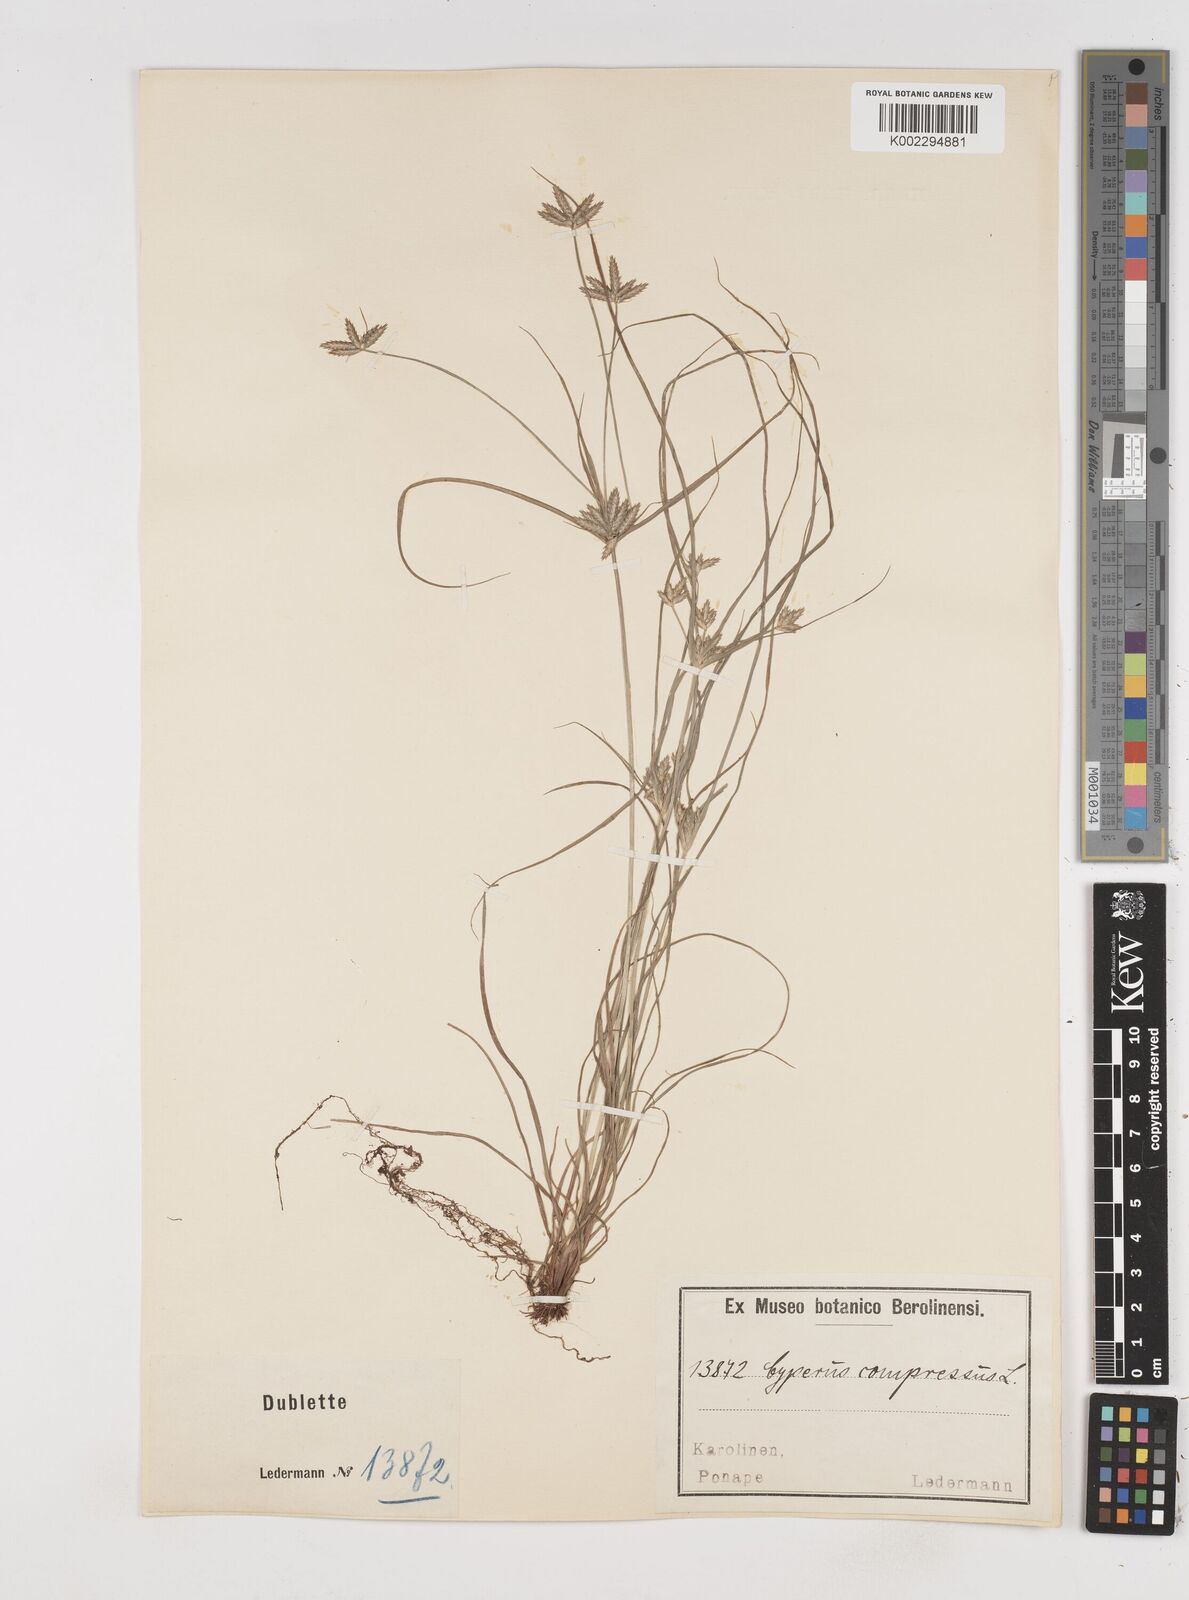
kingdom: Plantae
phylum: Tracheophyta
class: Liliopsida
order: Poales
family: Cyperaceae
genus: Cyperus
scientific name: Cyperus compressus
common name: Poorland flatsedge
